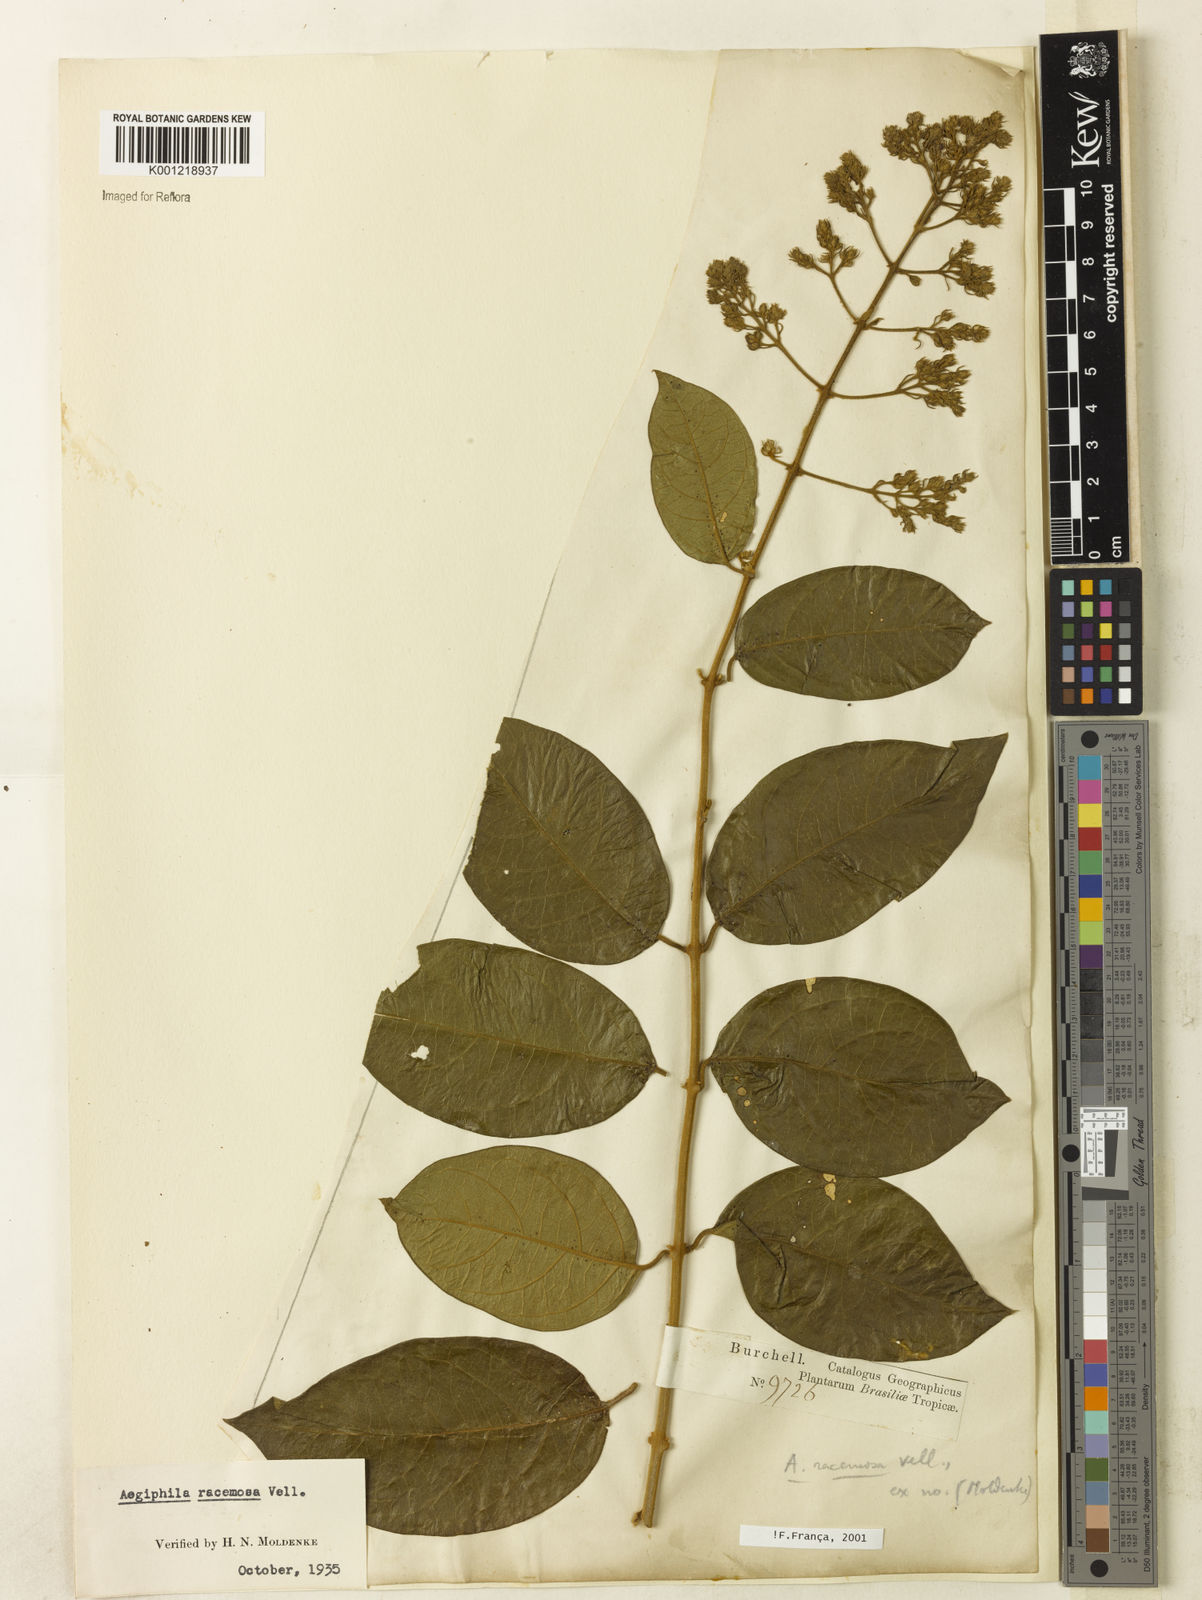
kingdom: Plantae
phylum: Tracheophyta
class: Magnoliopsida
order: Lamiales
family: Lamiaceae
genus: Aegiphila
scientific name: Aegiphila racemosa
